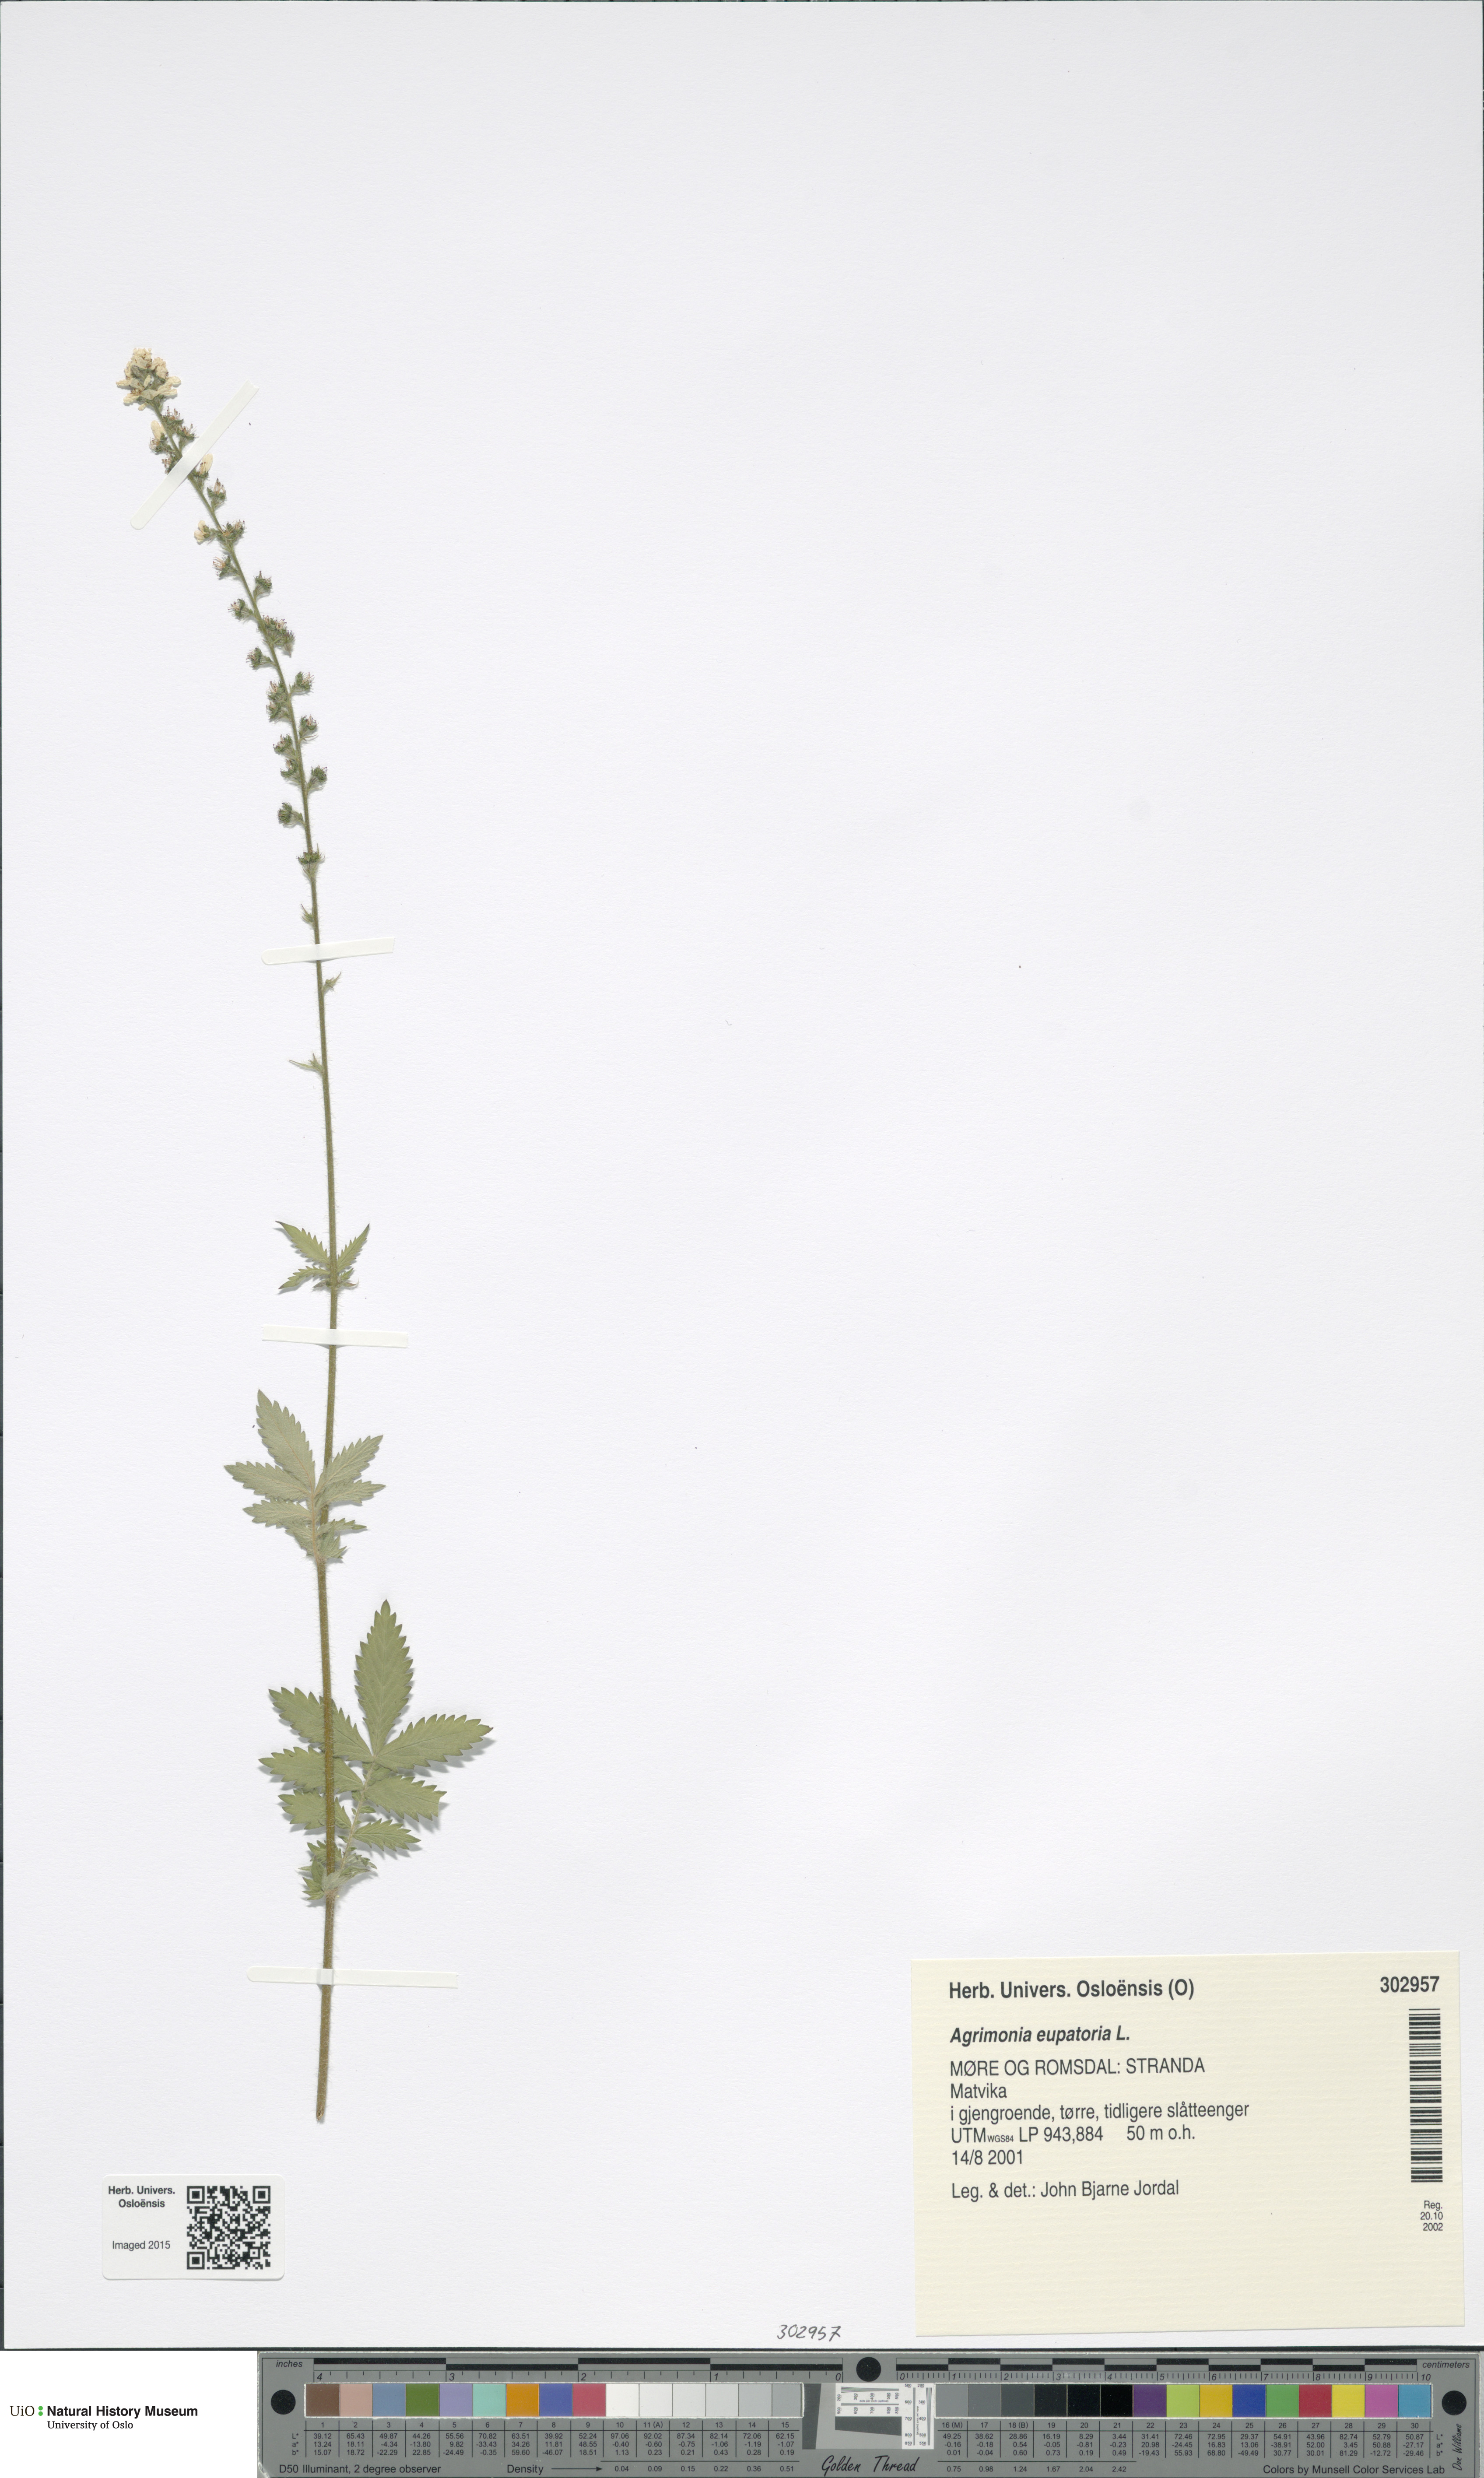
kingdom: Plantae
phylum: Tracheophyta
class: Magnoliopsida
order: Rosales
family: Rosaceae
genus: Agrimonia
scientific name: Agrimonia eupatoria
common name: Agrimony
